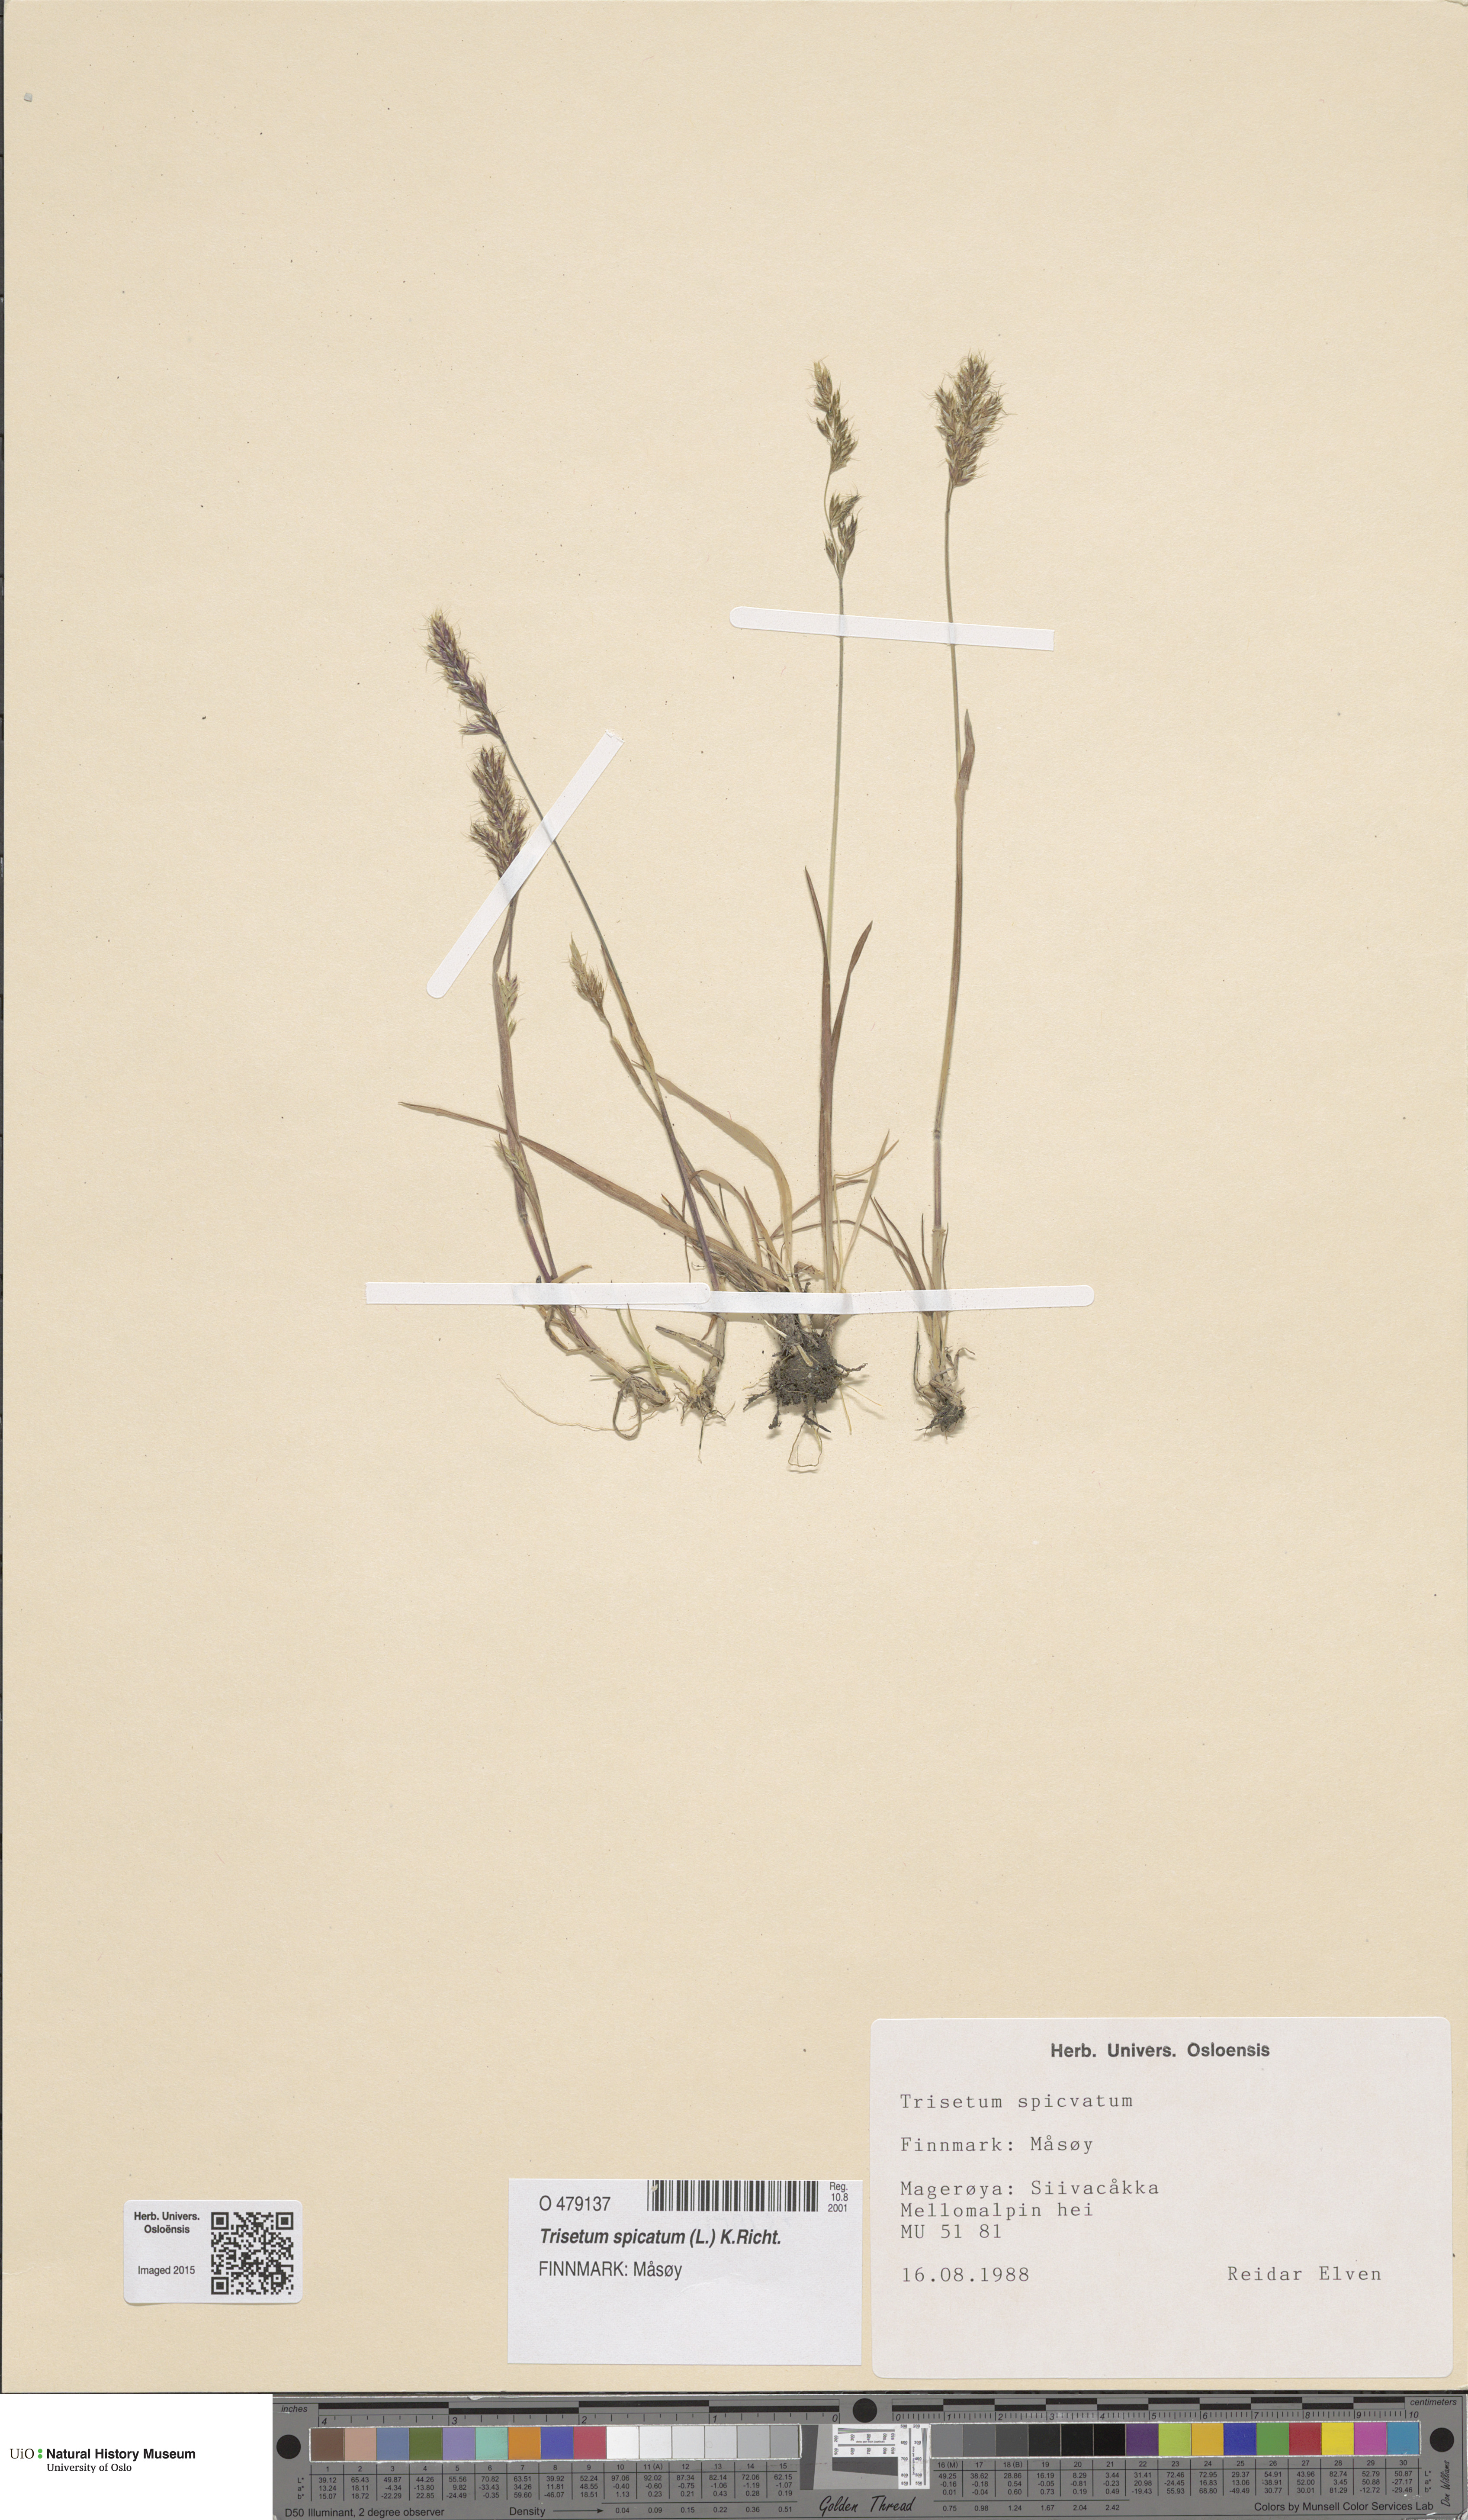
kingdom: Plantae
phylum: Tracheophyta
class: Liliopsida
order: Poales
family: Poaceae
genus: Koeleria
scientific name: Koeleria spicata
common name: Mountain trisetum
